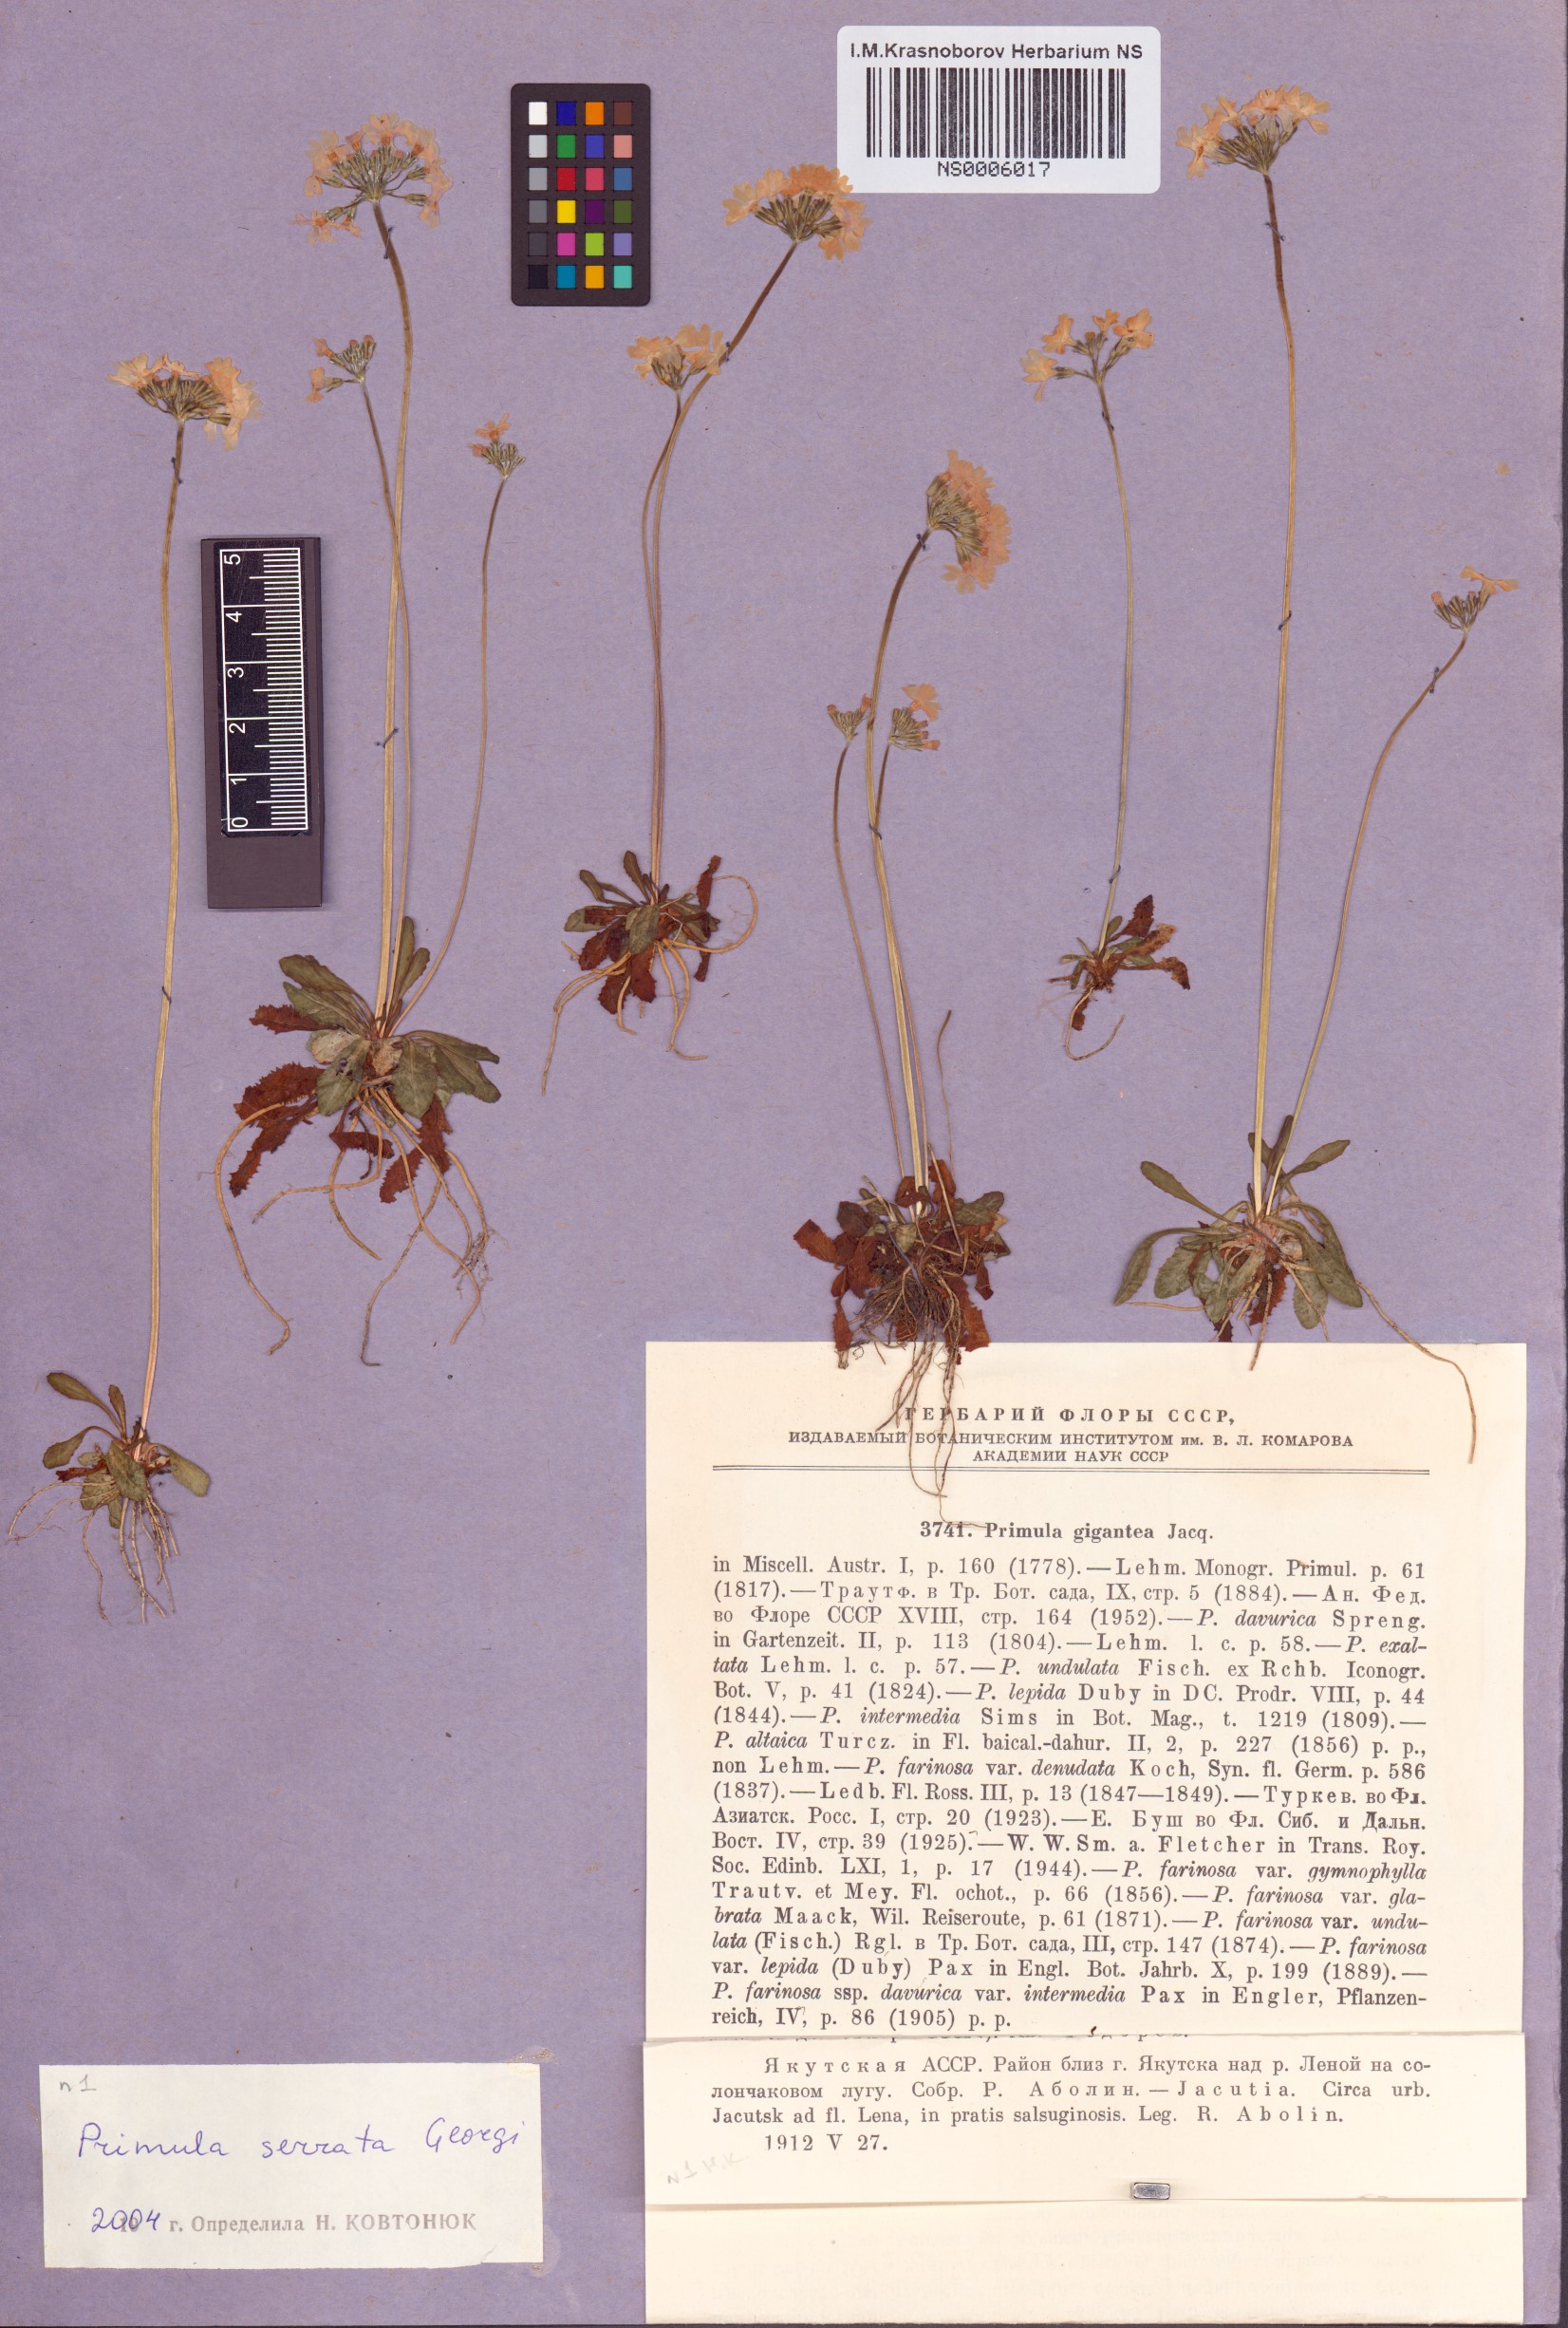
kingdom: Plantae
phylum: Tracheophyta
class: Magnoliopsida
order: Ericales
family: Primulaceae
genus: Primula
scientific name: Primula serrata
